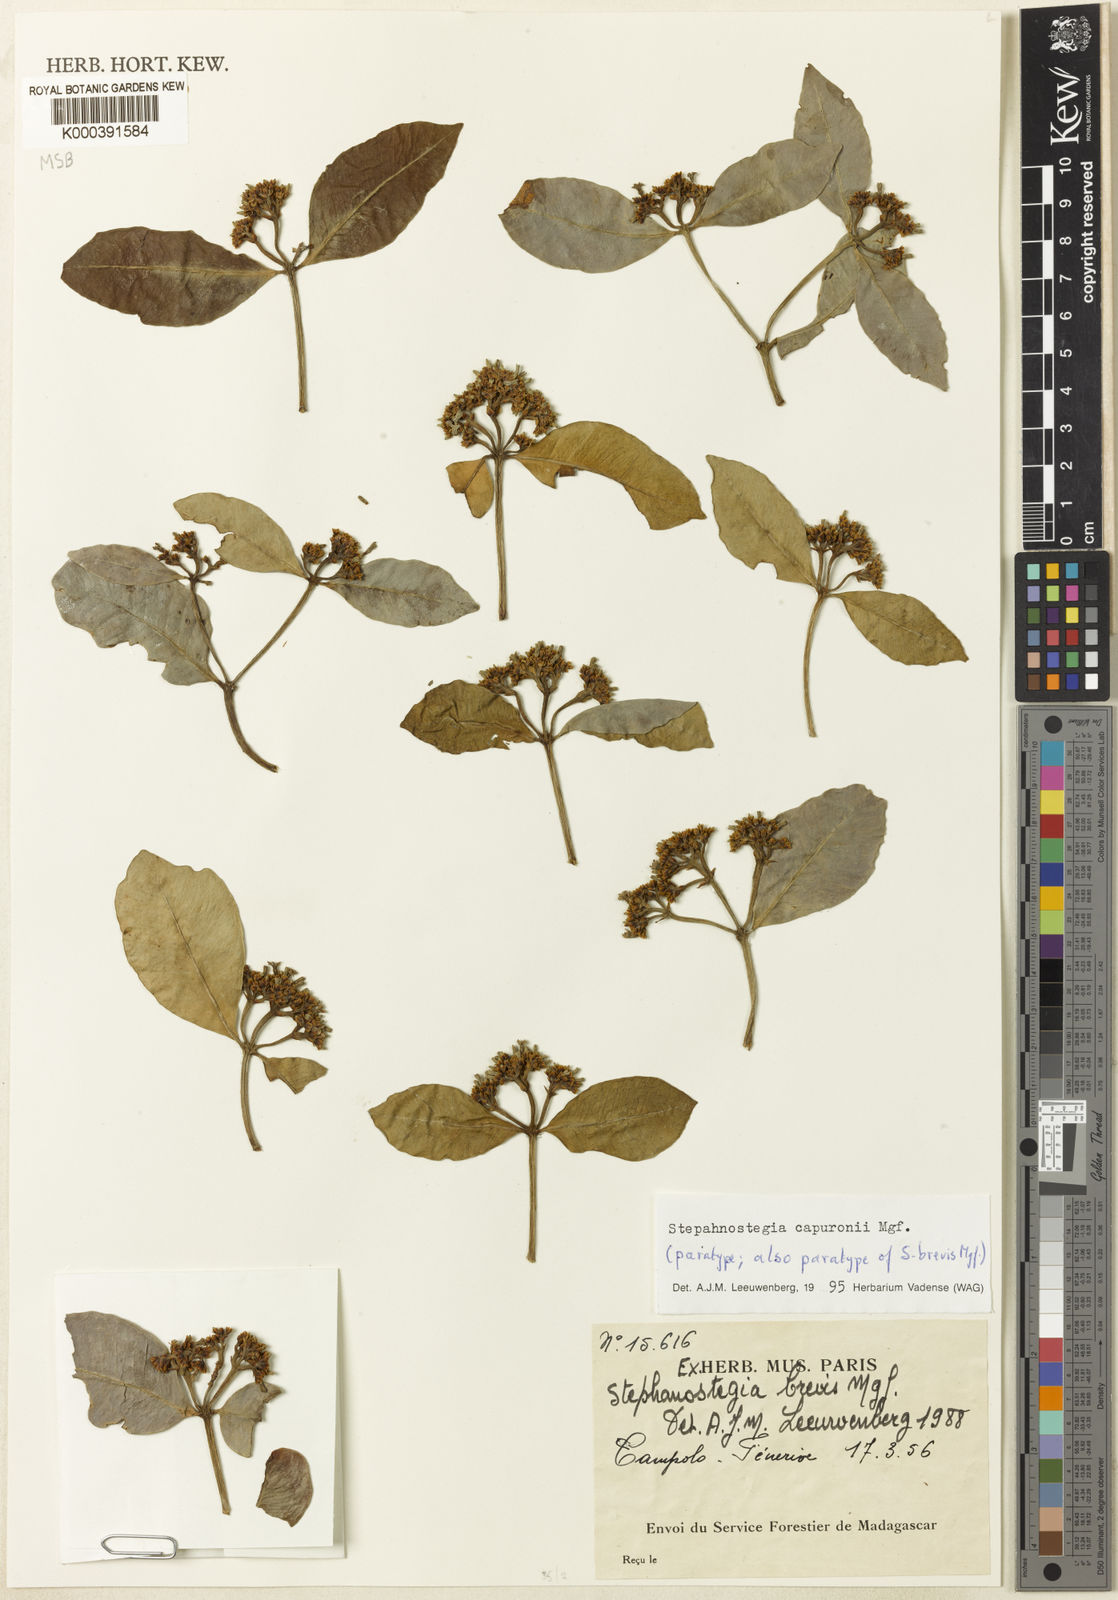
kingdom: Plantae
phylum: Tracheophyta
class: Magnoliopsida
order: Gentianales
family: Apocynaceae
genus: Stephanostegia
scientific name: Stephanostegia capuronii
